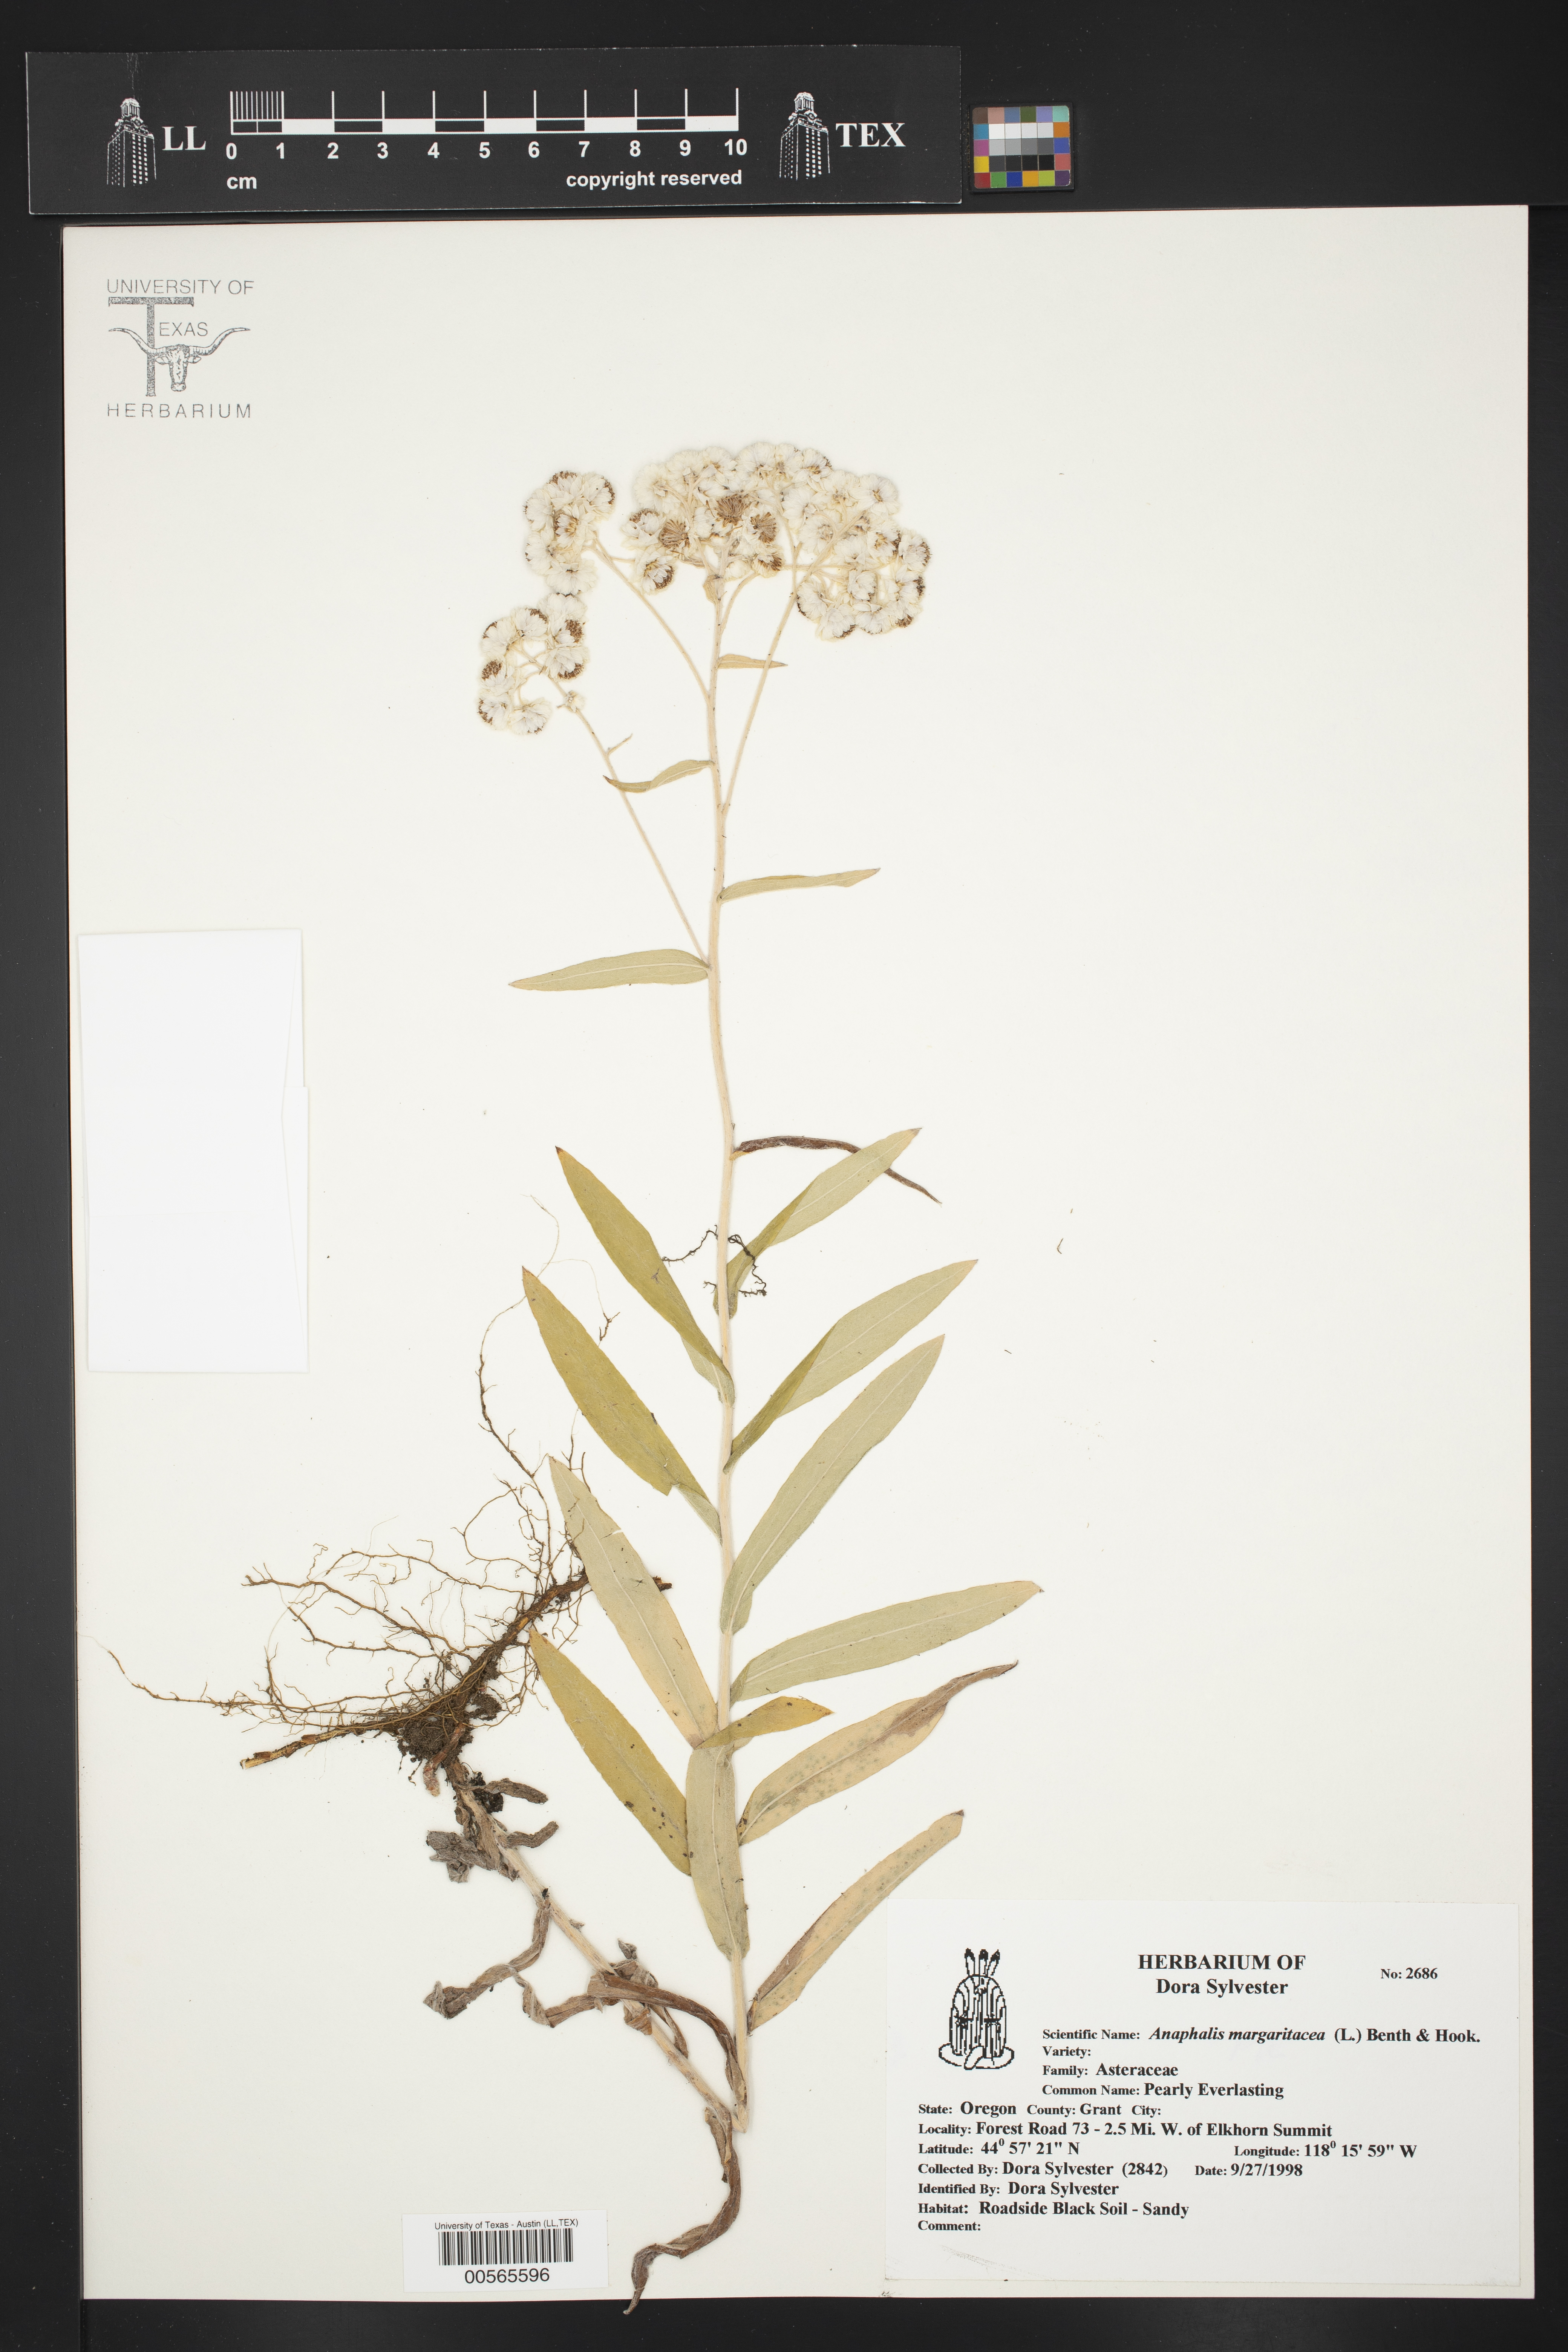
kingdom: Plantae
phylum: Tracheophyta
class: Magnoliopsida
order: Asterales
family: Asteraceae
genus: Anaphalis
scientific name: Anaphalis margaritacea
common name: Pearly everlasting
